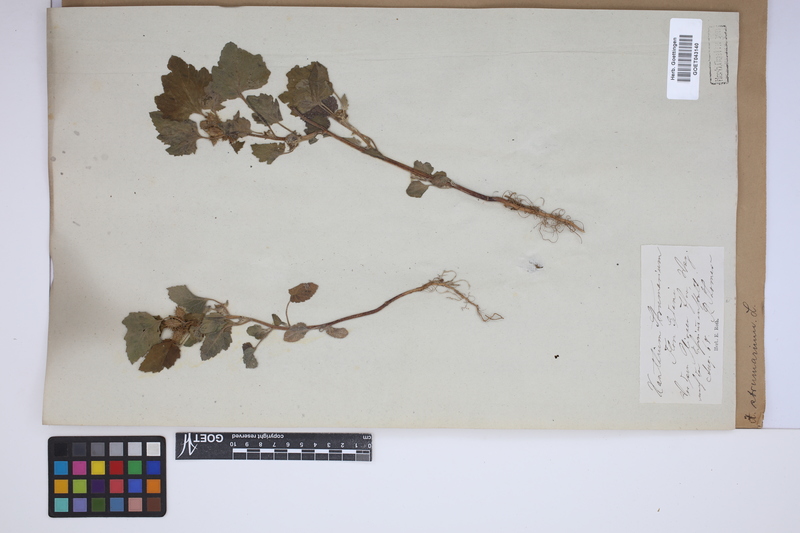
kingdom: Plantae
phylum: Tracheophyta
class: Magnoliopsida
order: Asterales
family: Asteraceae
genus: Xanthium
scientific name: Xanthium strumarium
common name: Rough cocklebur
